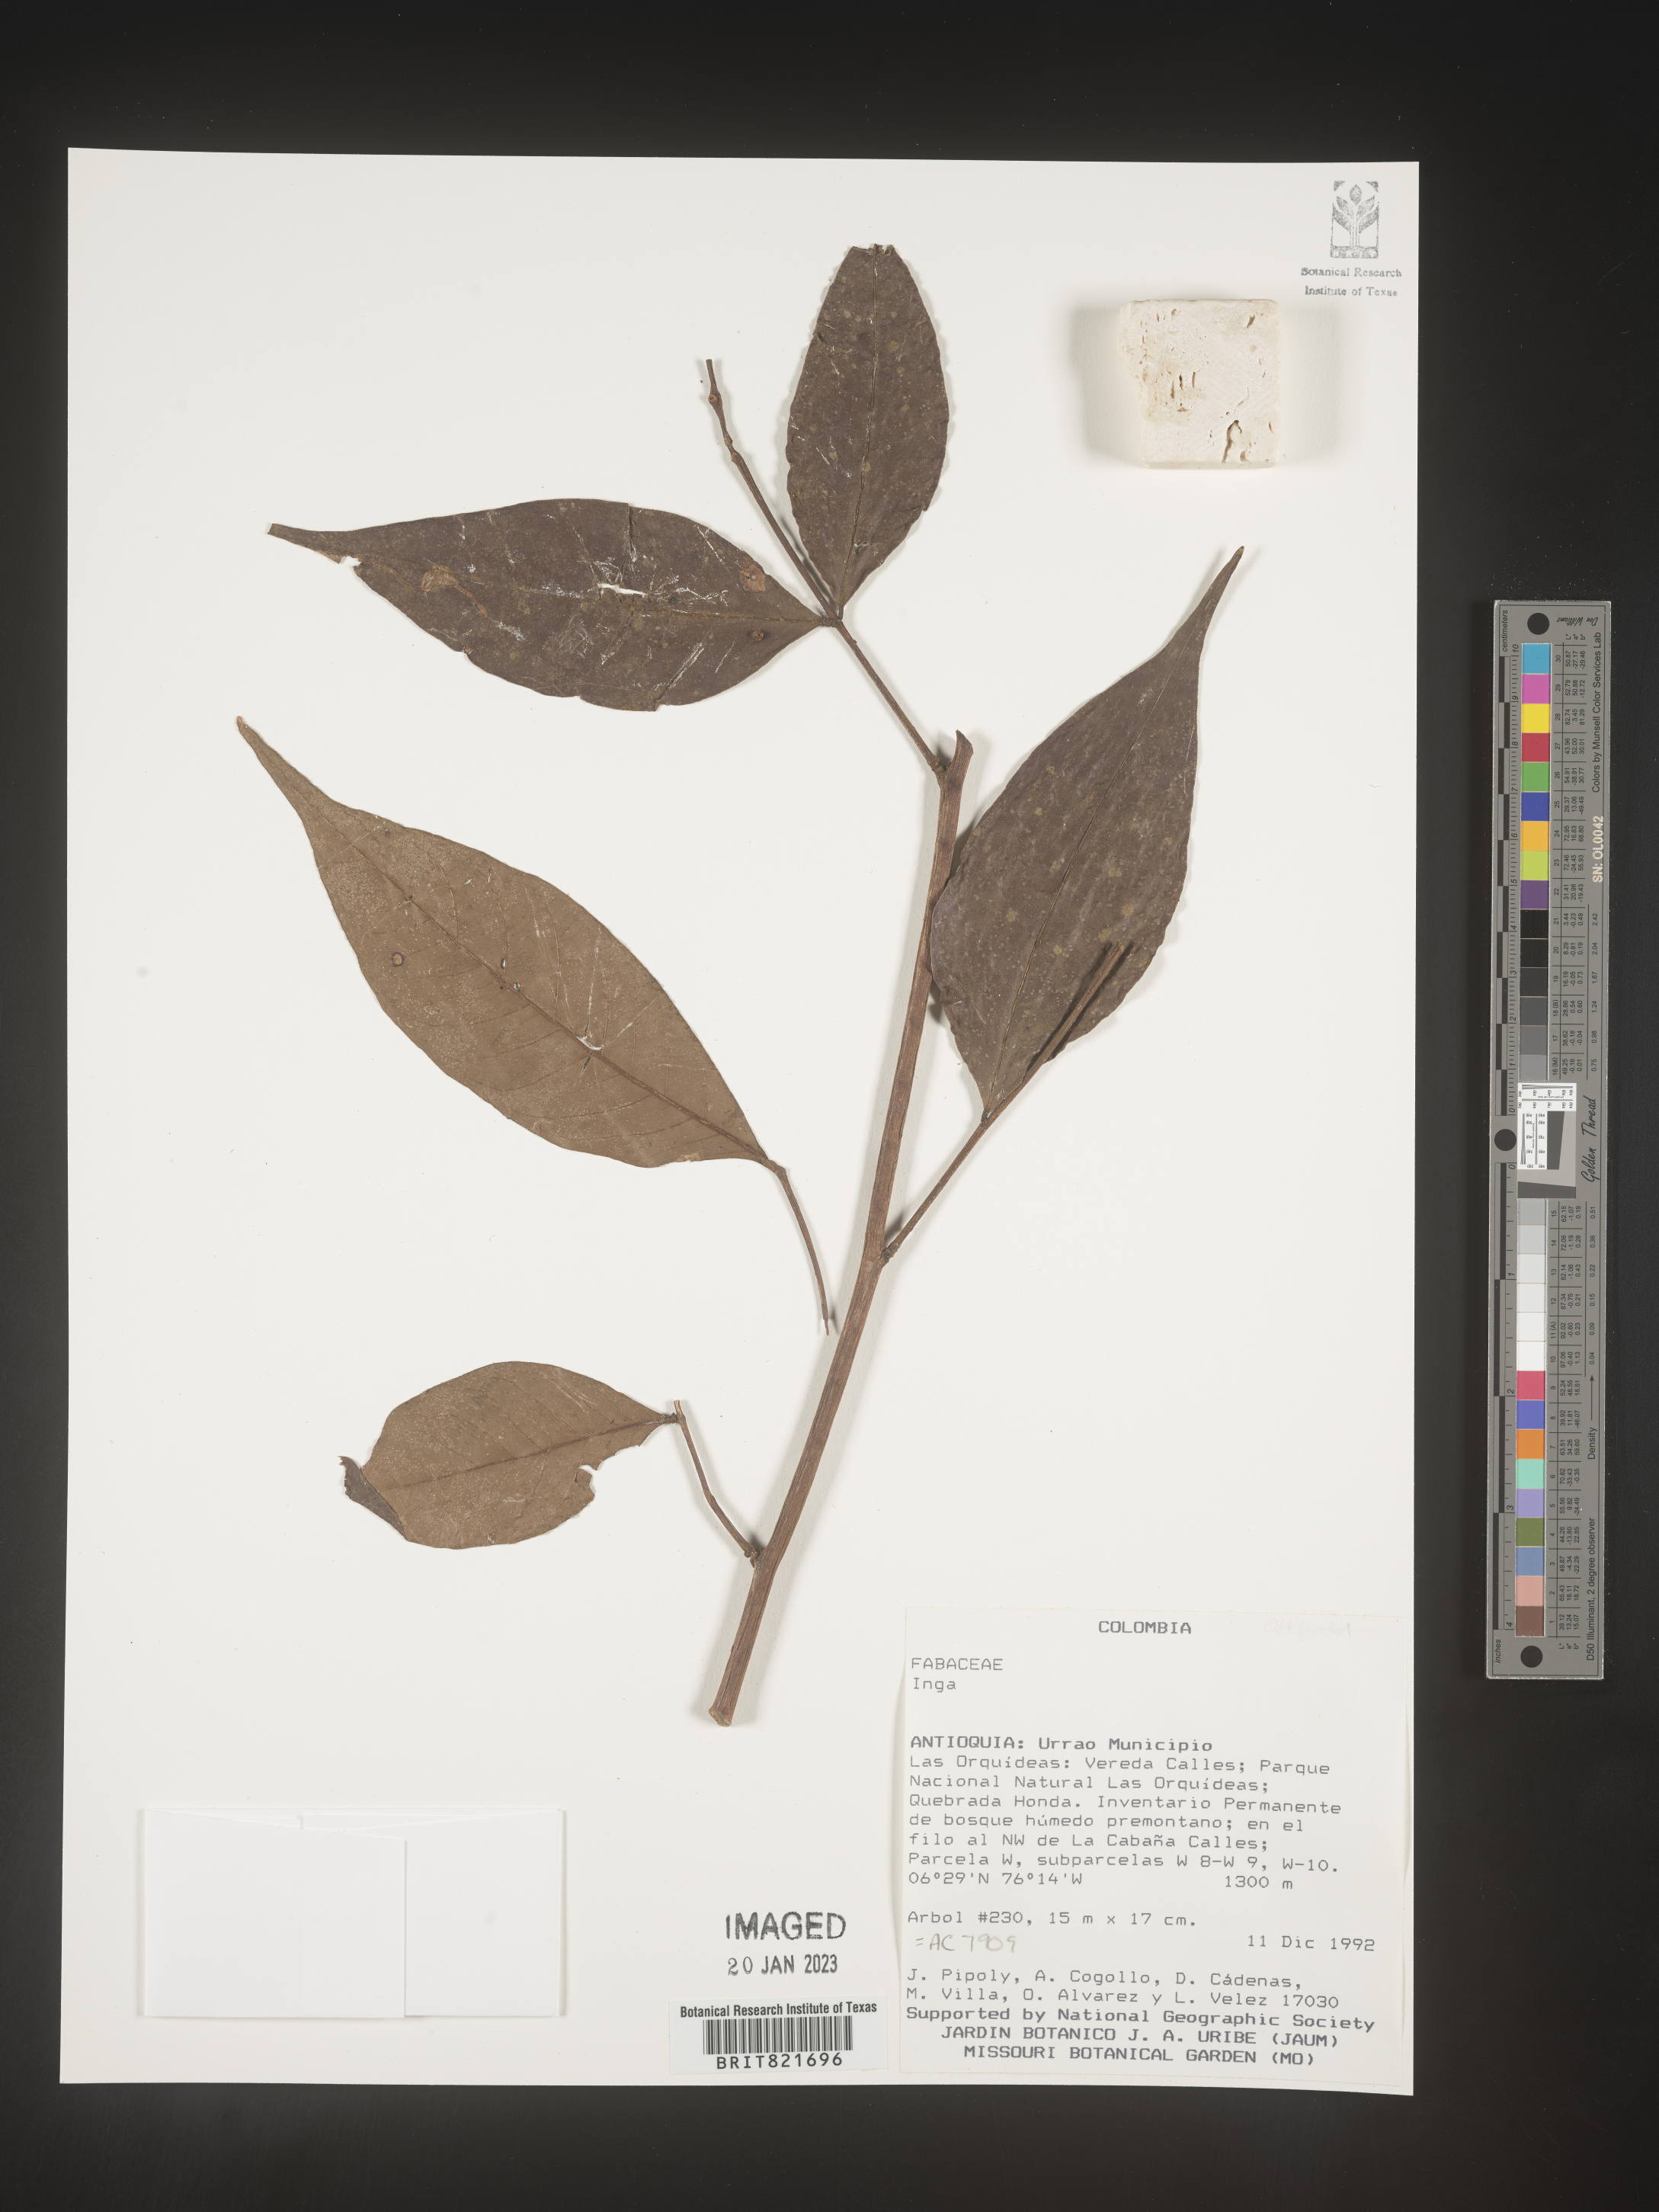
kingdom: Plantae
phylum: Tracheophyta
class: Magnoliopsida
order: Fabales
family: Fabaceae
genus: Inga
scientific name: Inga
